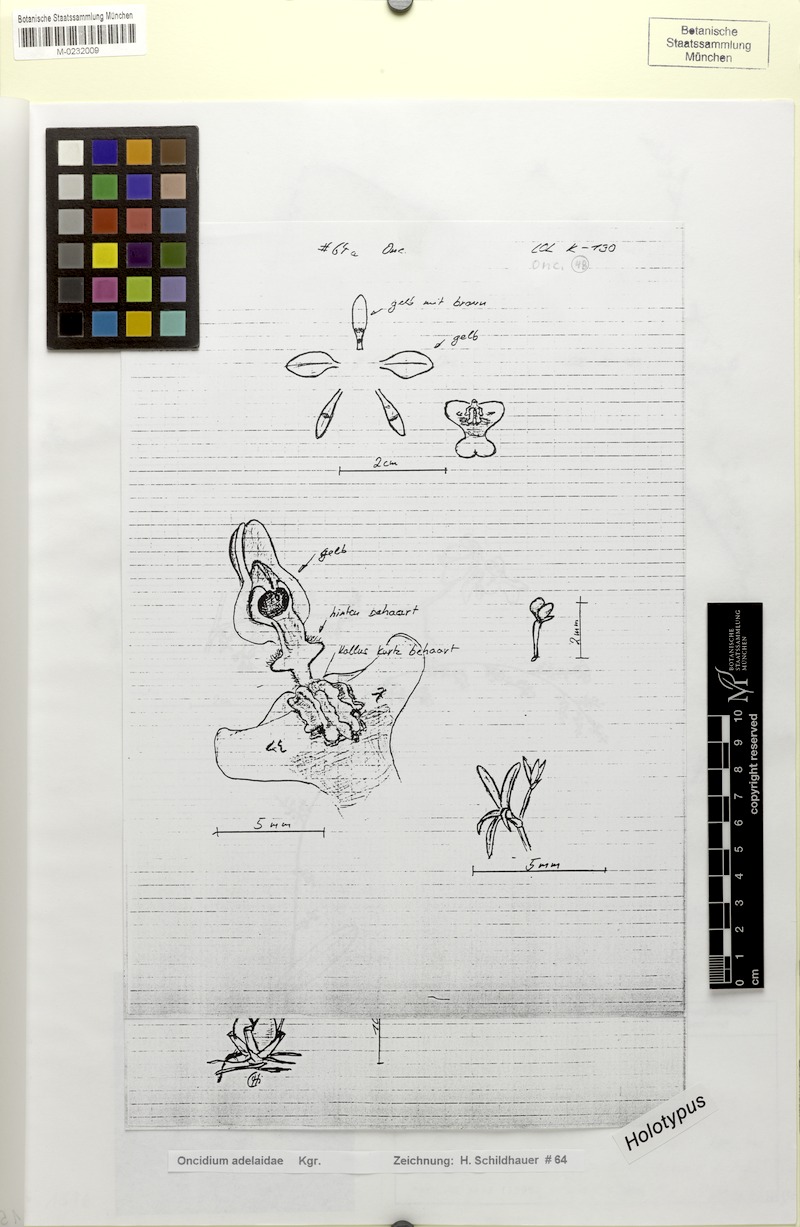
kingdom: Plantae
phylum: Tracheophyta
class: Liliopsida
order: Asparagales
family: Orchidaceae
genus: Oncidium
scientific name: Oncidium adelaidae
